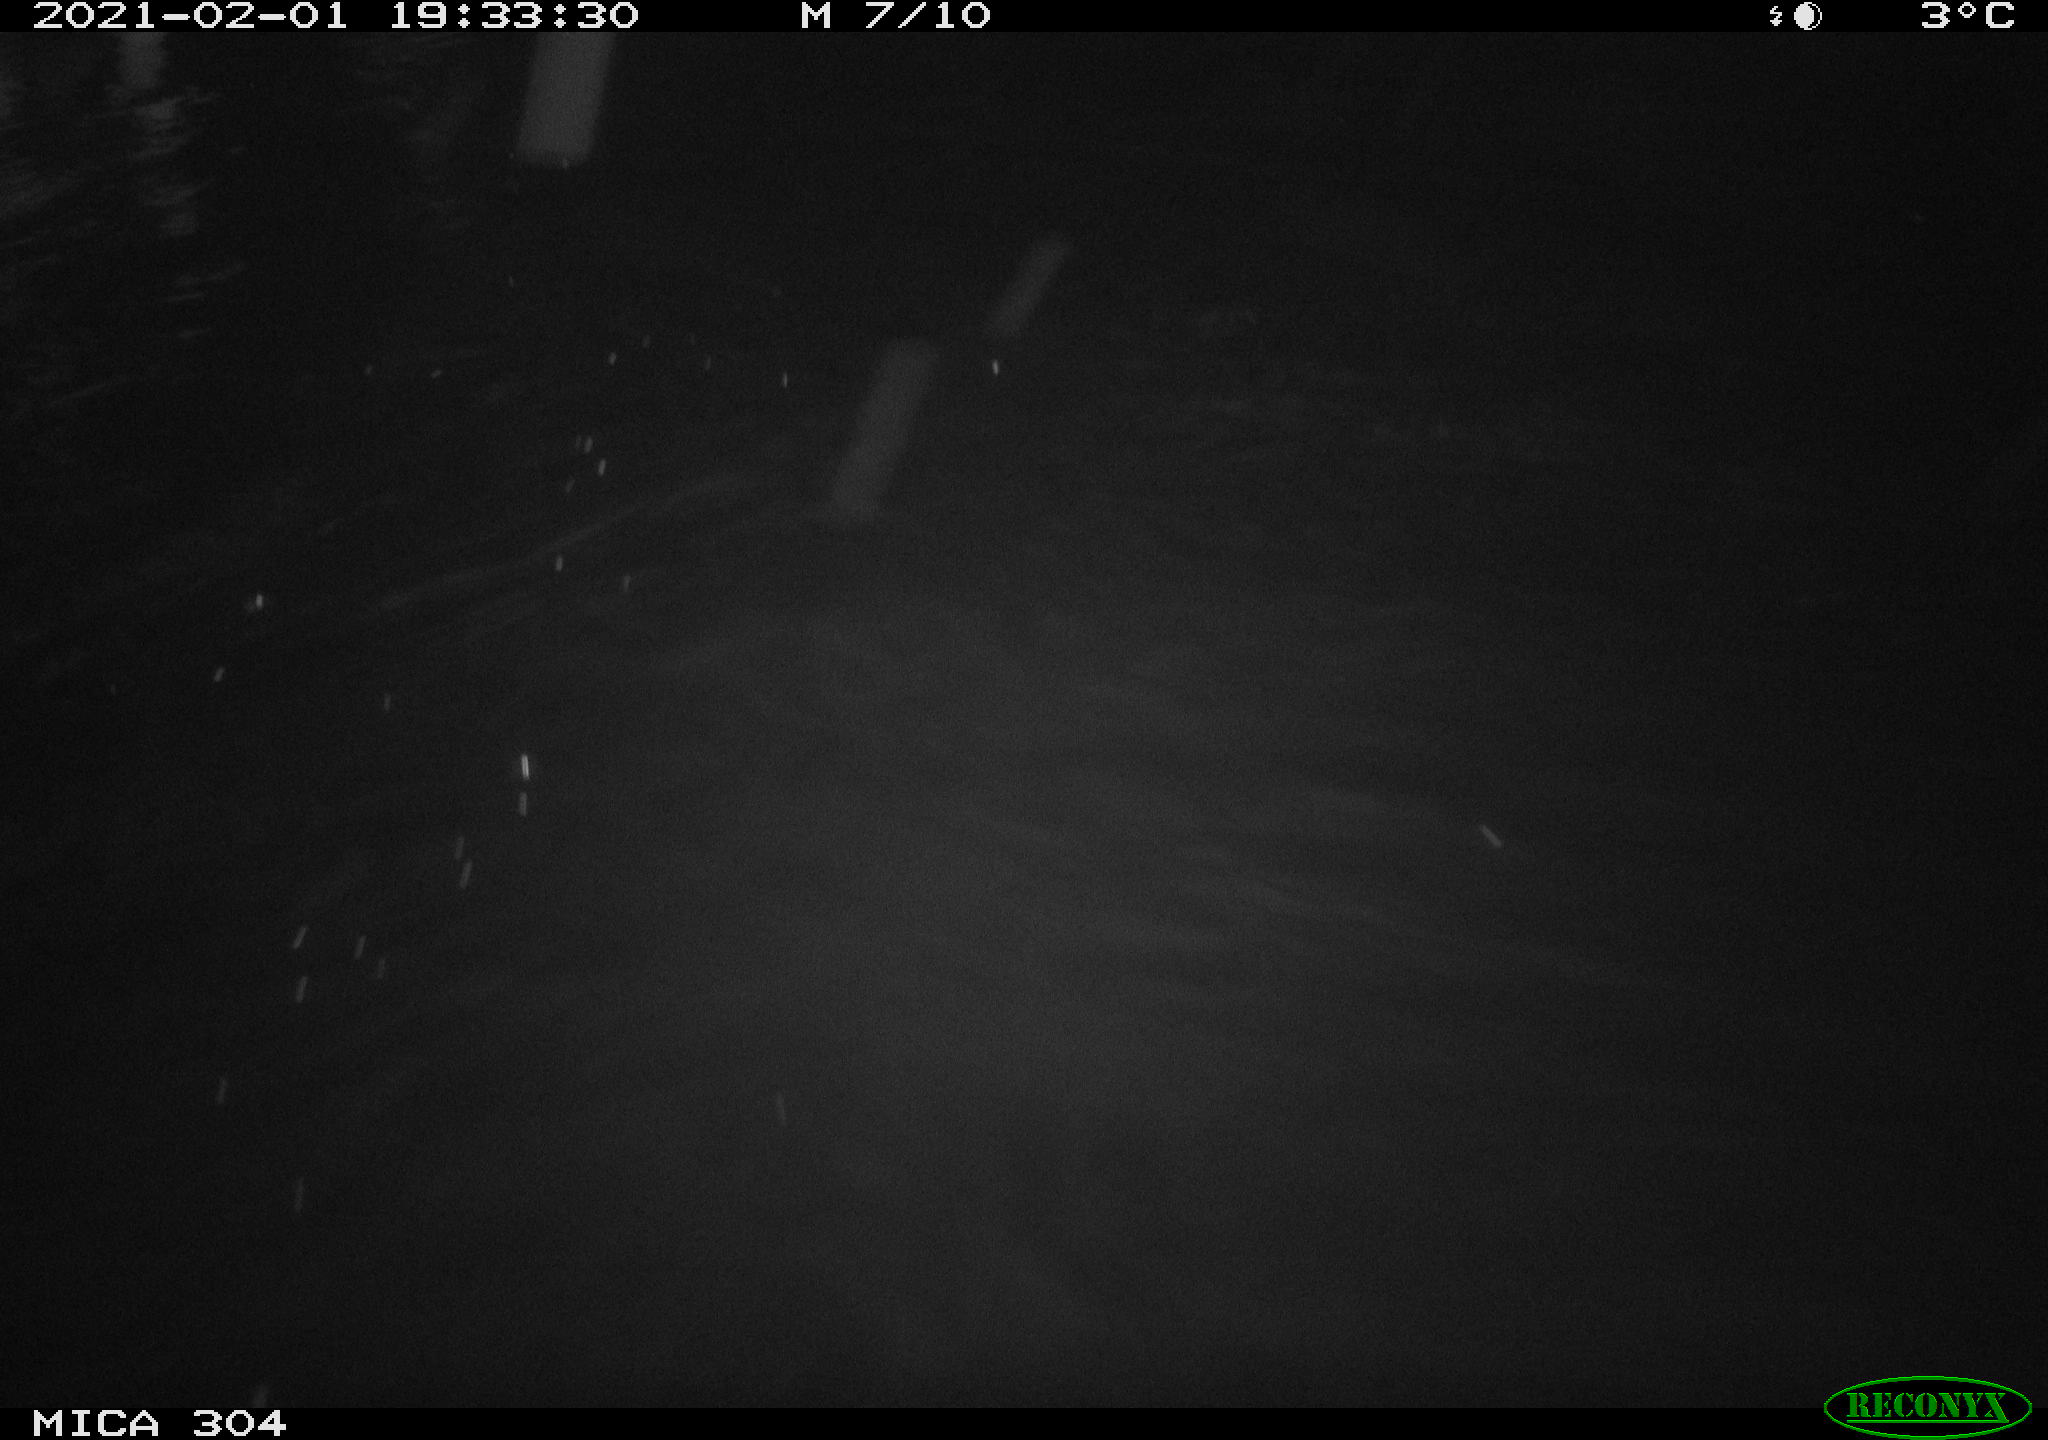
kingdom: Animalia
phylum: Chordata
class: Mammalia
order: Rodentia
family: Cricetidae
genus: Ondatra
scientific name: Ondatra zibethicus
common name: Muskrat
